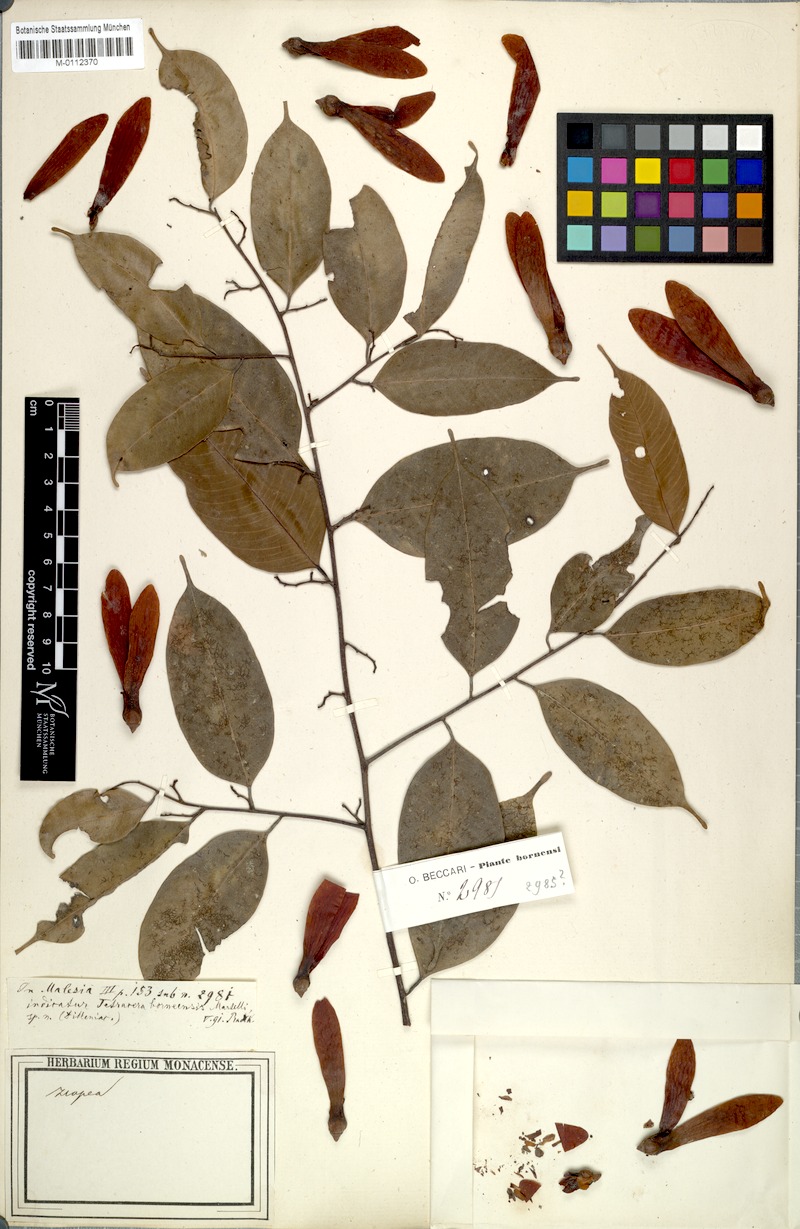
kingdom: Plantae
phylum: Tracheophyta
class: Magnoliopsida
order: Dilleniales
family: Dilleniaceae
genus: Tetracera
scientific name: Tetracera fagifolia
